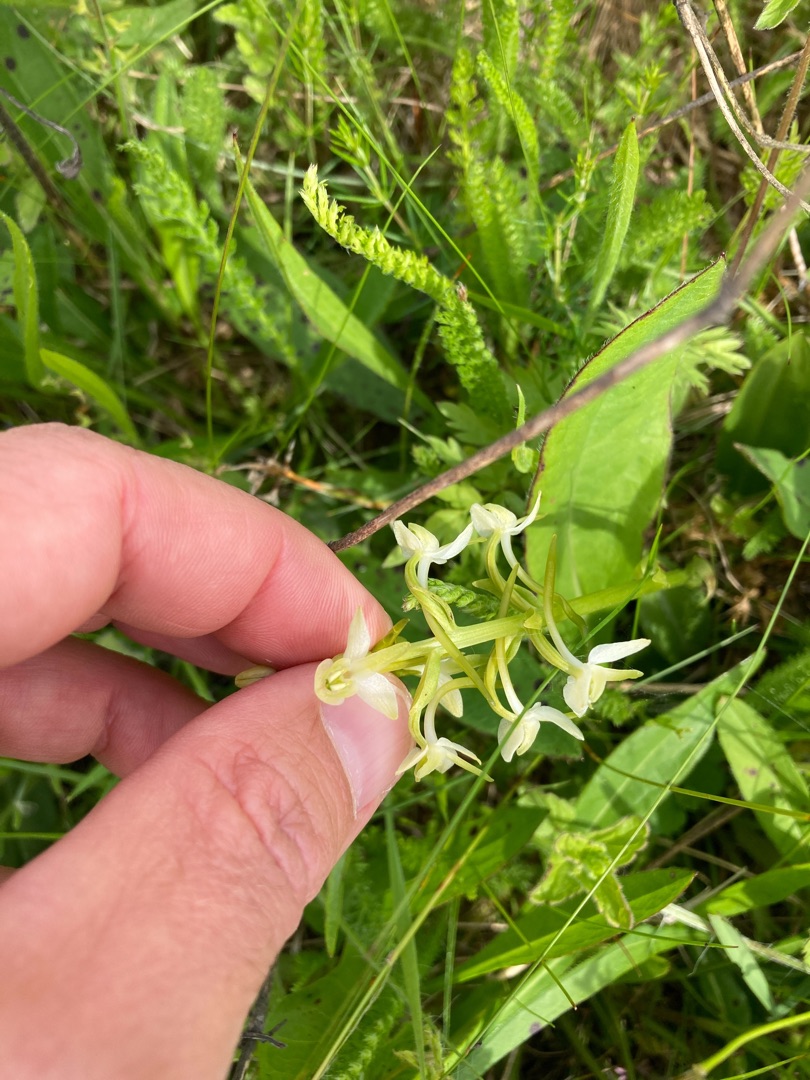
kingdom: Plantae
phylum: Tracheophyta
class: Liliopsida
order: Asparagales
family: Orchidaceae
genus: Platanthera
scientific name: Platanthera bifolia
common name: Bakke-gøgelilje
